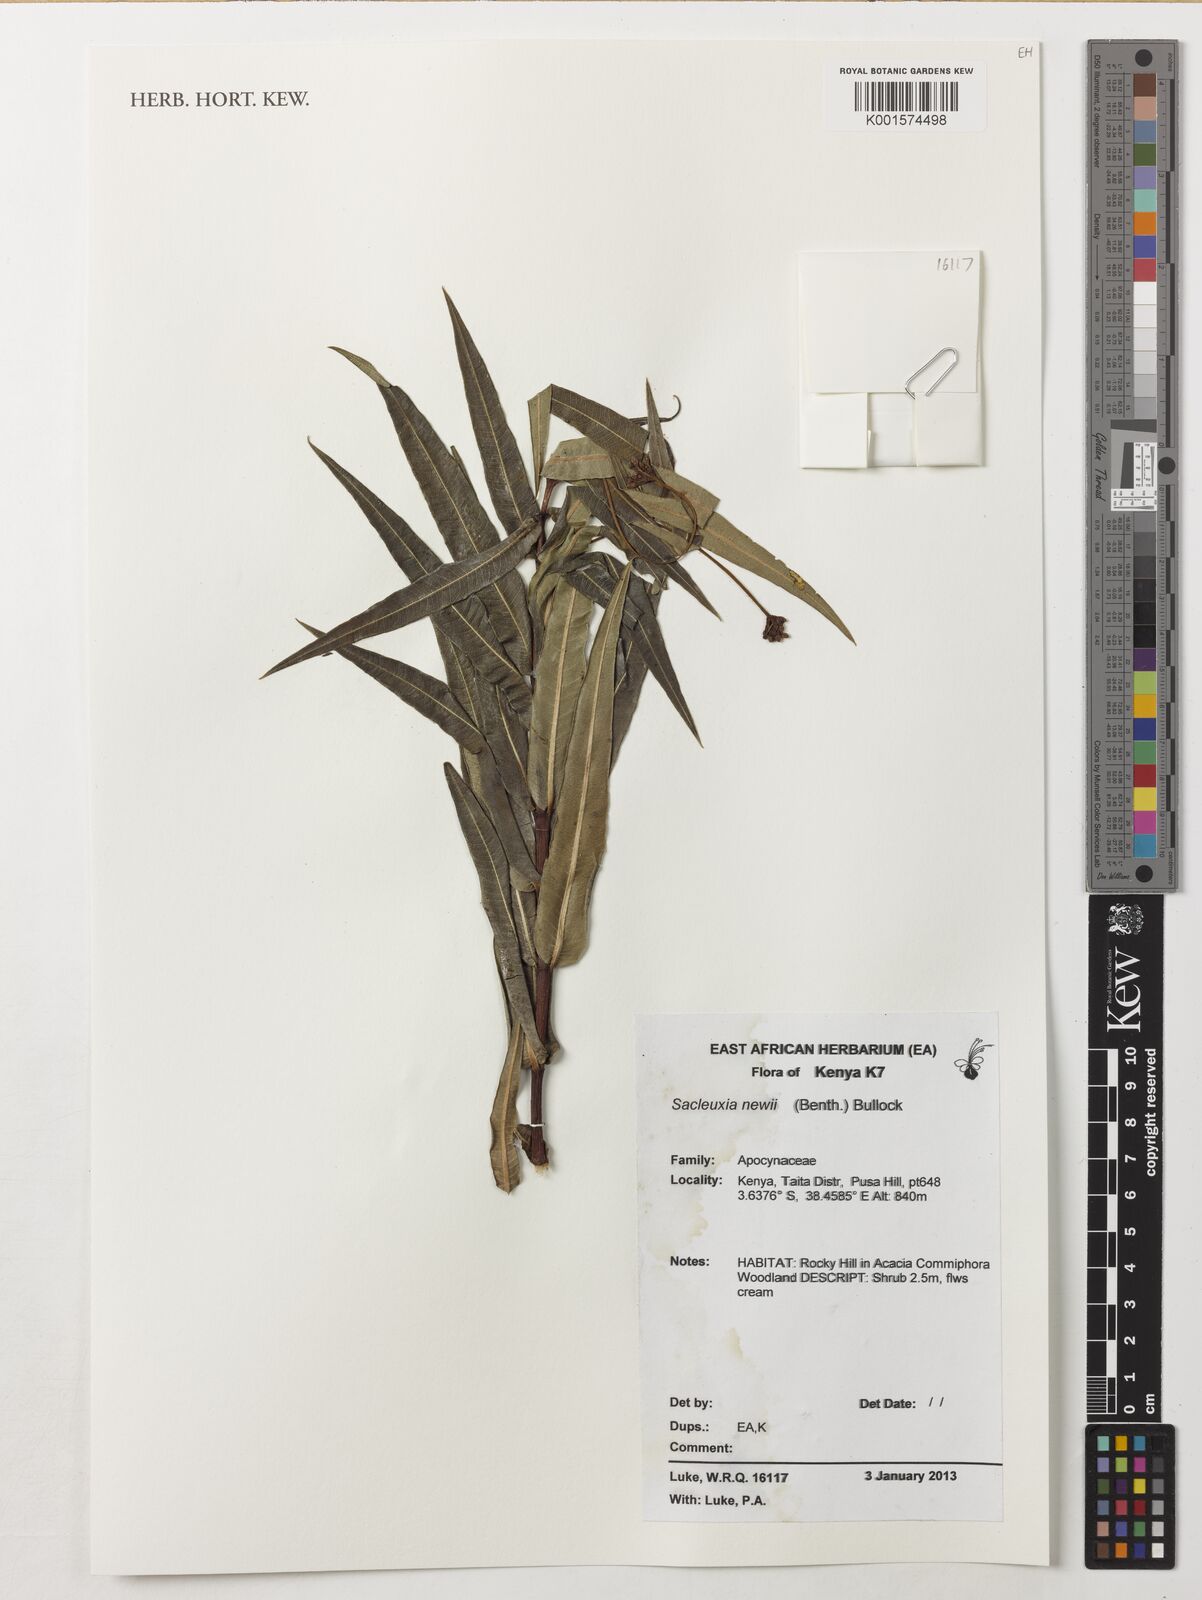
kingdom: Plantae
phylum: Tracheophyta
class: Magnoliopsida
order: Gentianales
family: Apocynaceae
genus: Cryptolepis
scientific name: Cryptolepis newii
